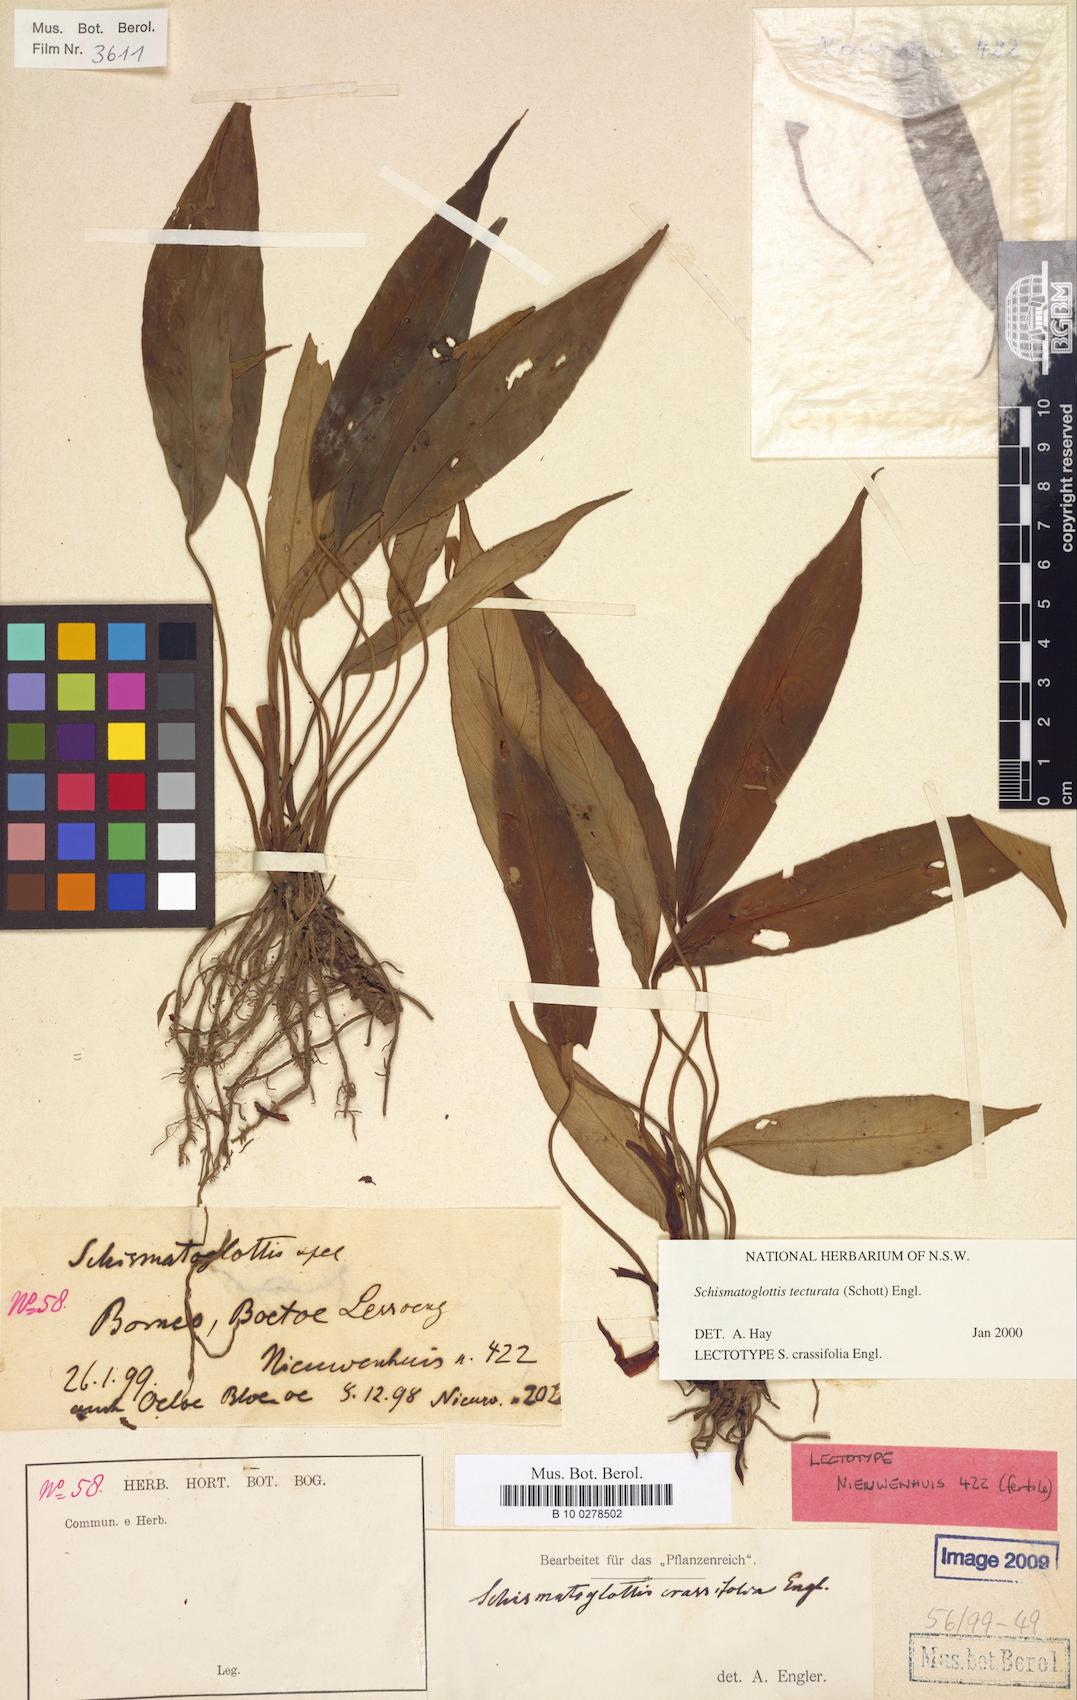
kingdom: Plantae
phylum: Tracheophyta
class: Liliopsida
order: Zingiberales
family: Costaceae
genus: Colobogynium
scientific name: Colobogynium variegatum
